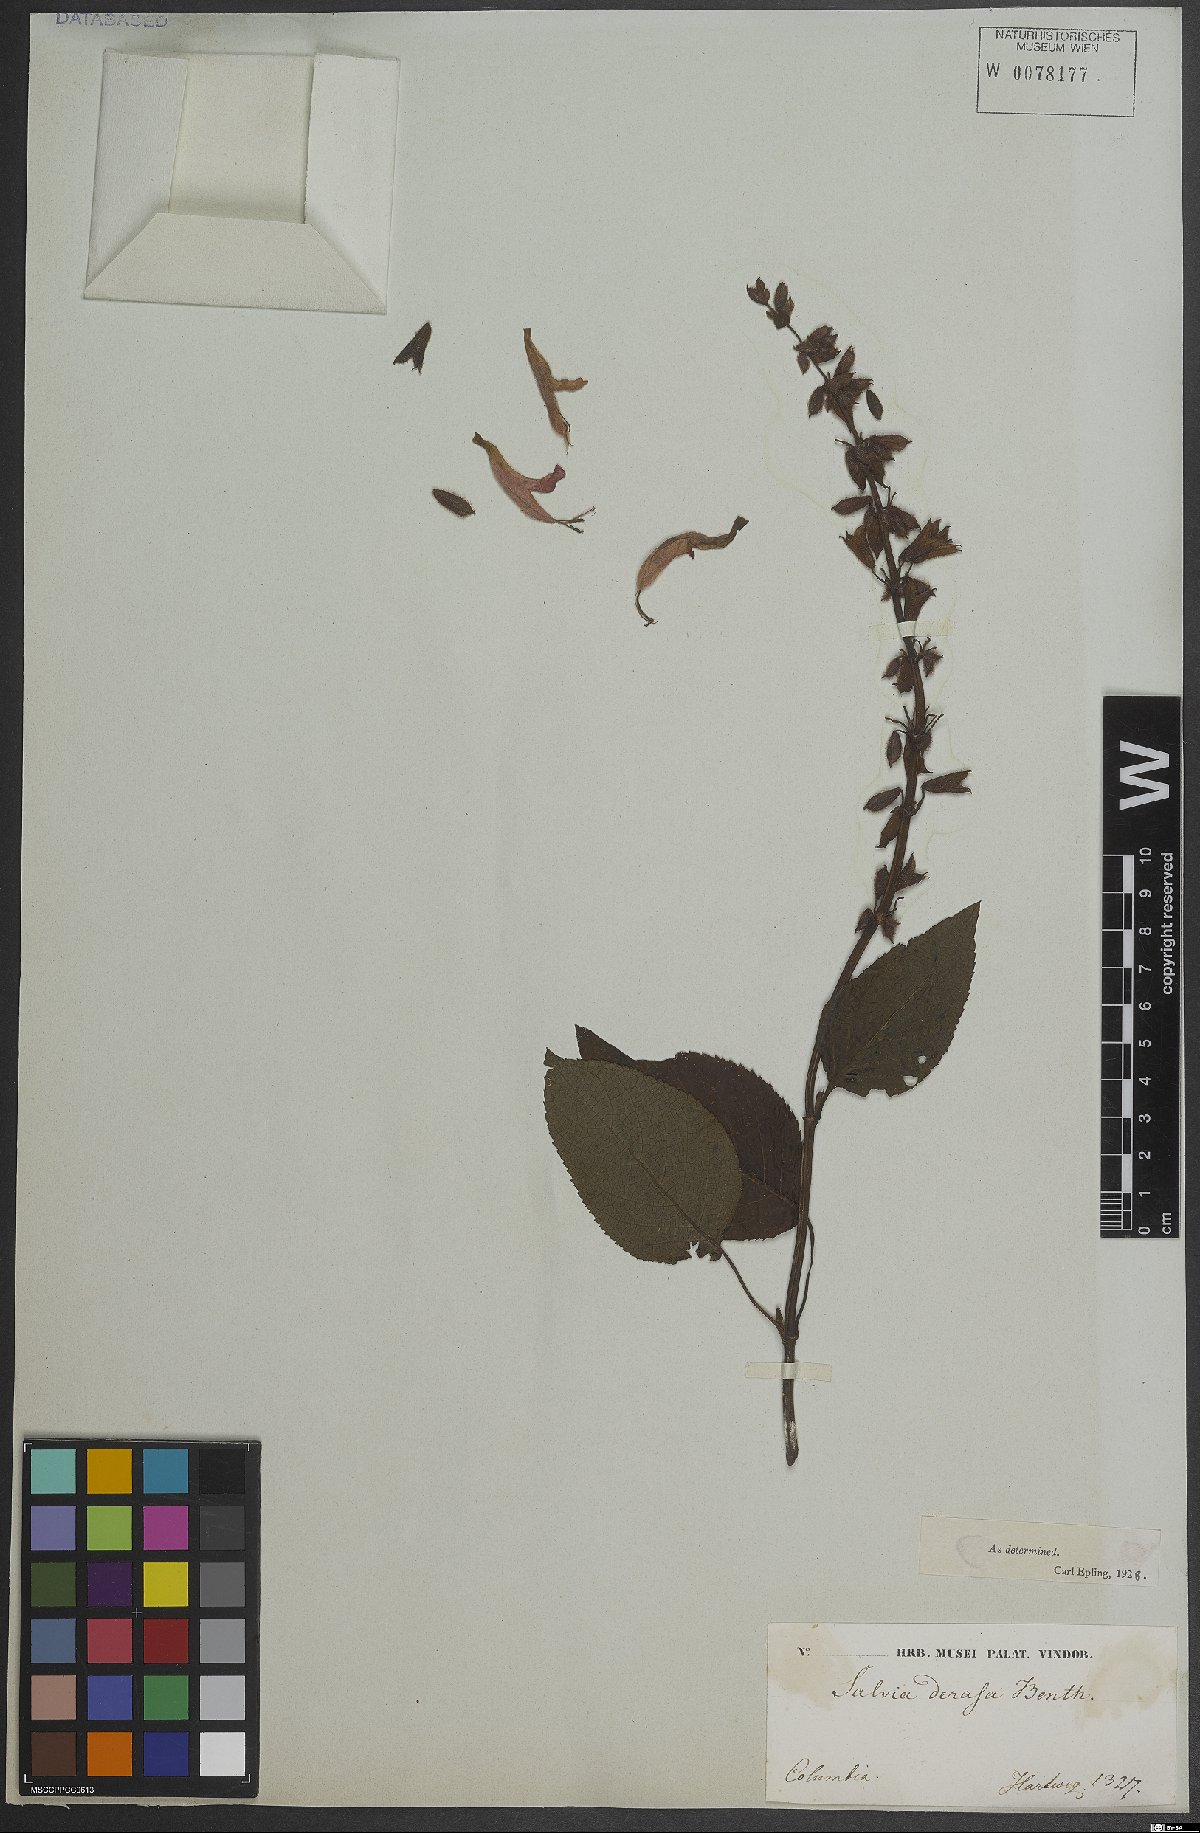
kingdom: Plantae
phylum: Tracheophyta
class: Magnoliopsida
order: Lamiales
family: Lamiaceae
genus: Salvia
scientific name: Salvia
